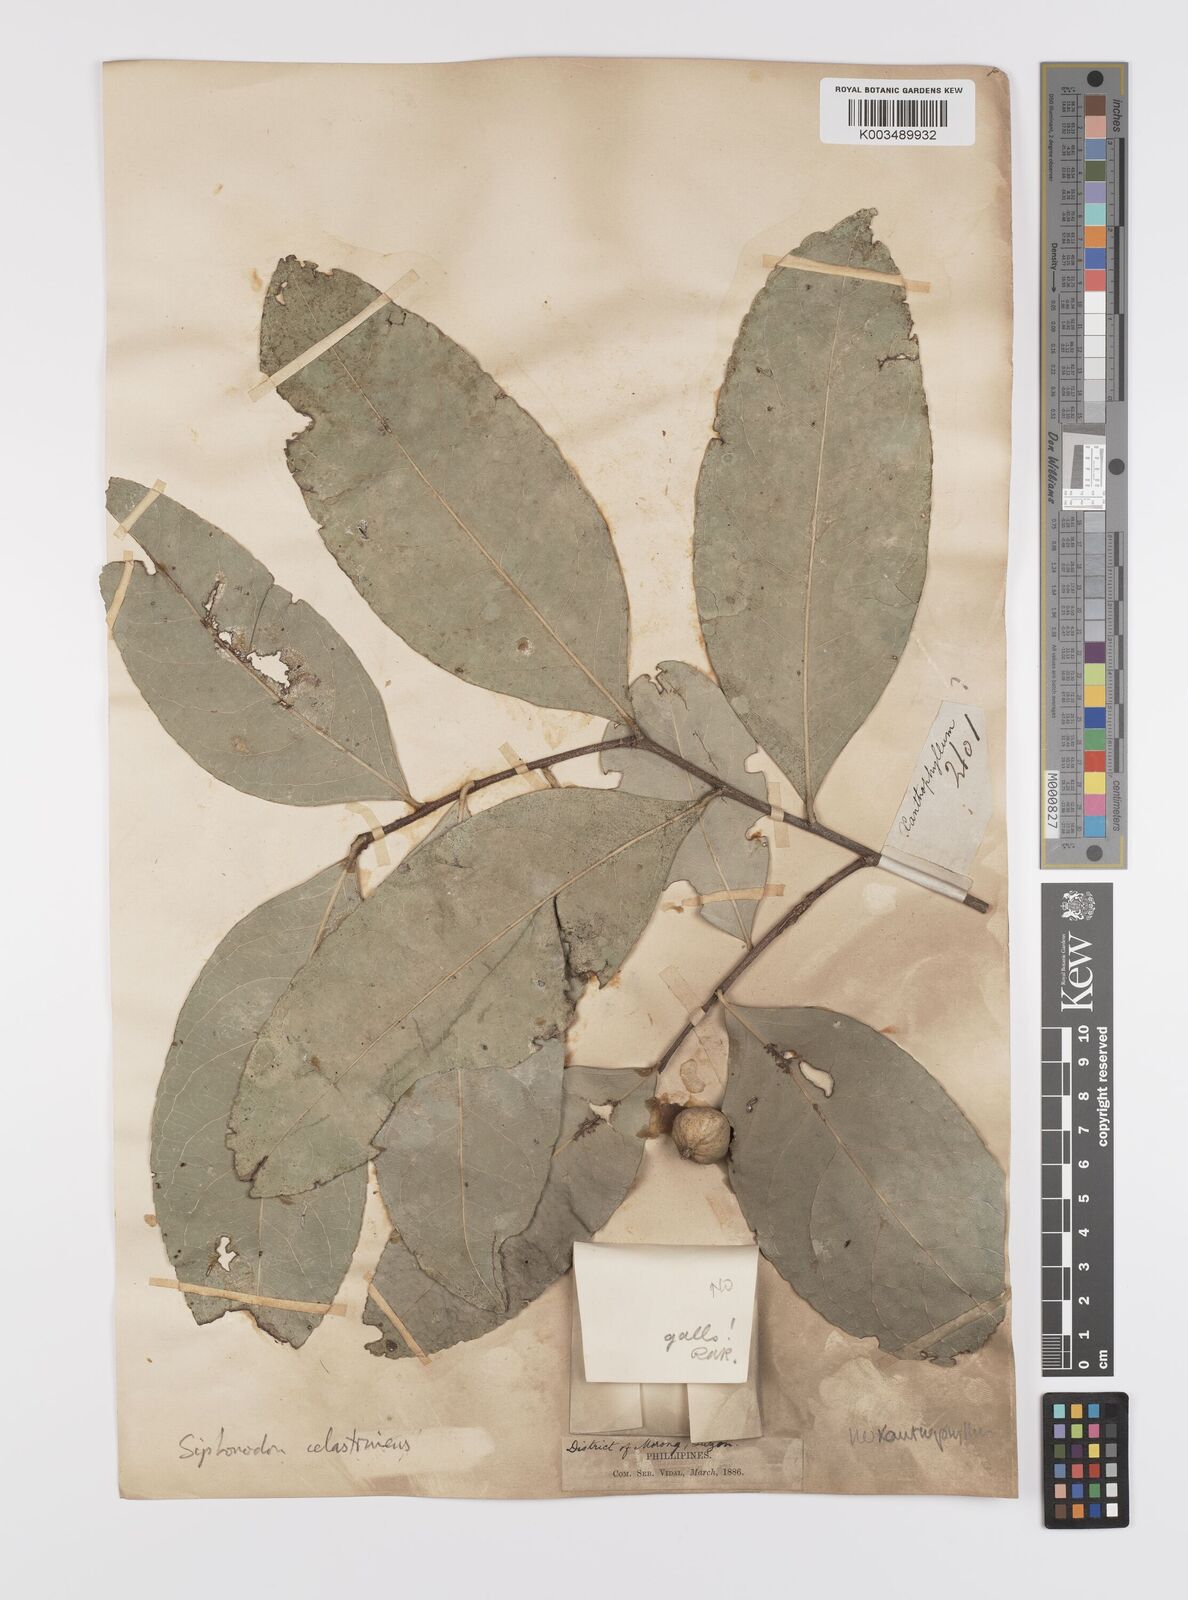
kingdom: Plantae
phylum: Tracheophyta
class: Magnoliopsida
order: Celastrales
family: Celastraceae
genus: Siphonodon
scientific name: Siphonodon celastrineus
